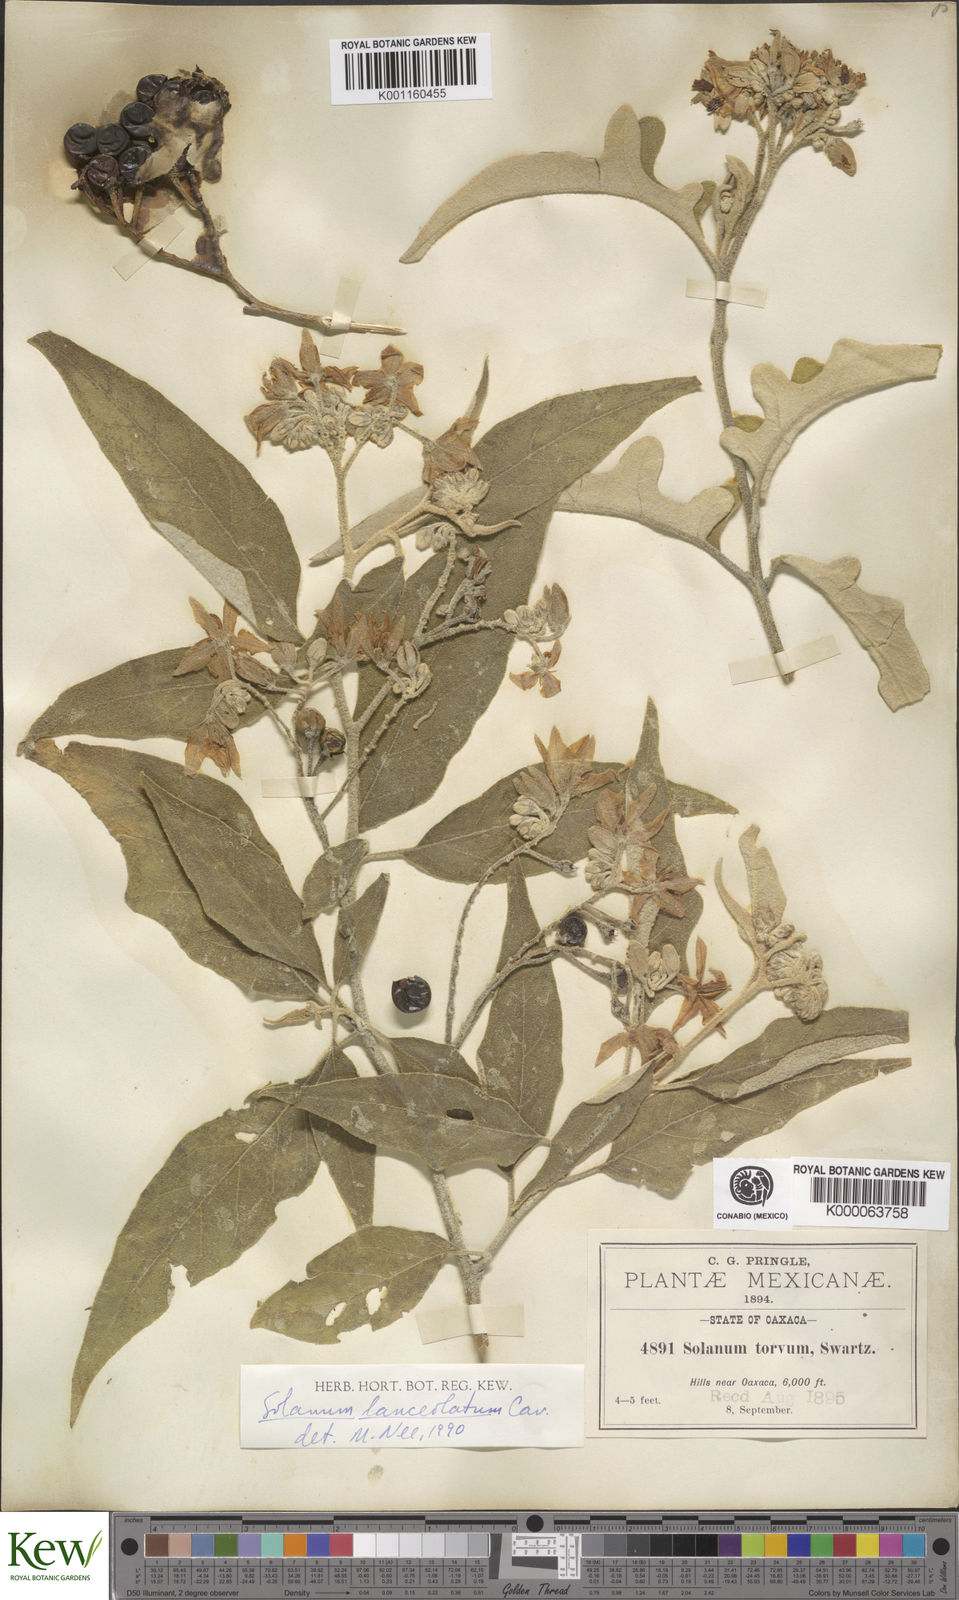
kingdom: Plantae
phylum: Tracheophyta
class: Magnoliopsida
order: Solanales
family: Solanaceae
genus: Solanum
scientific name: Solanum lanceolatum
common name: Orangeberry nightshade
